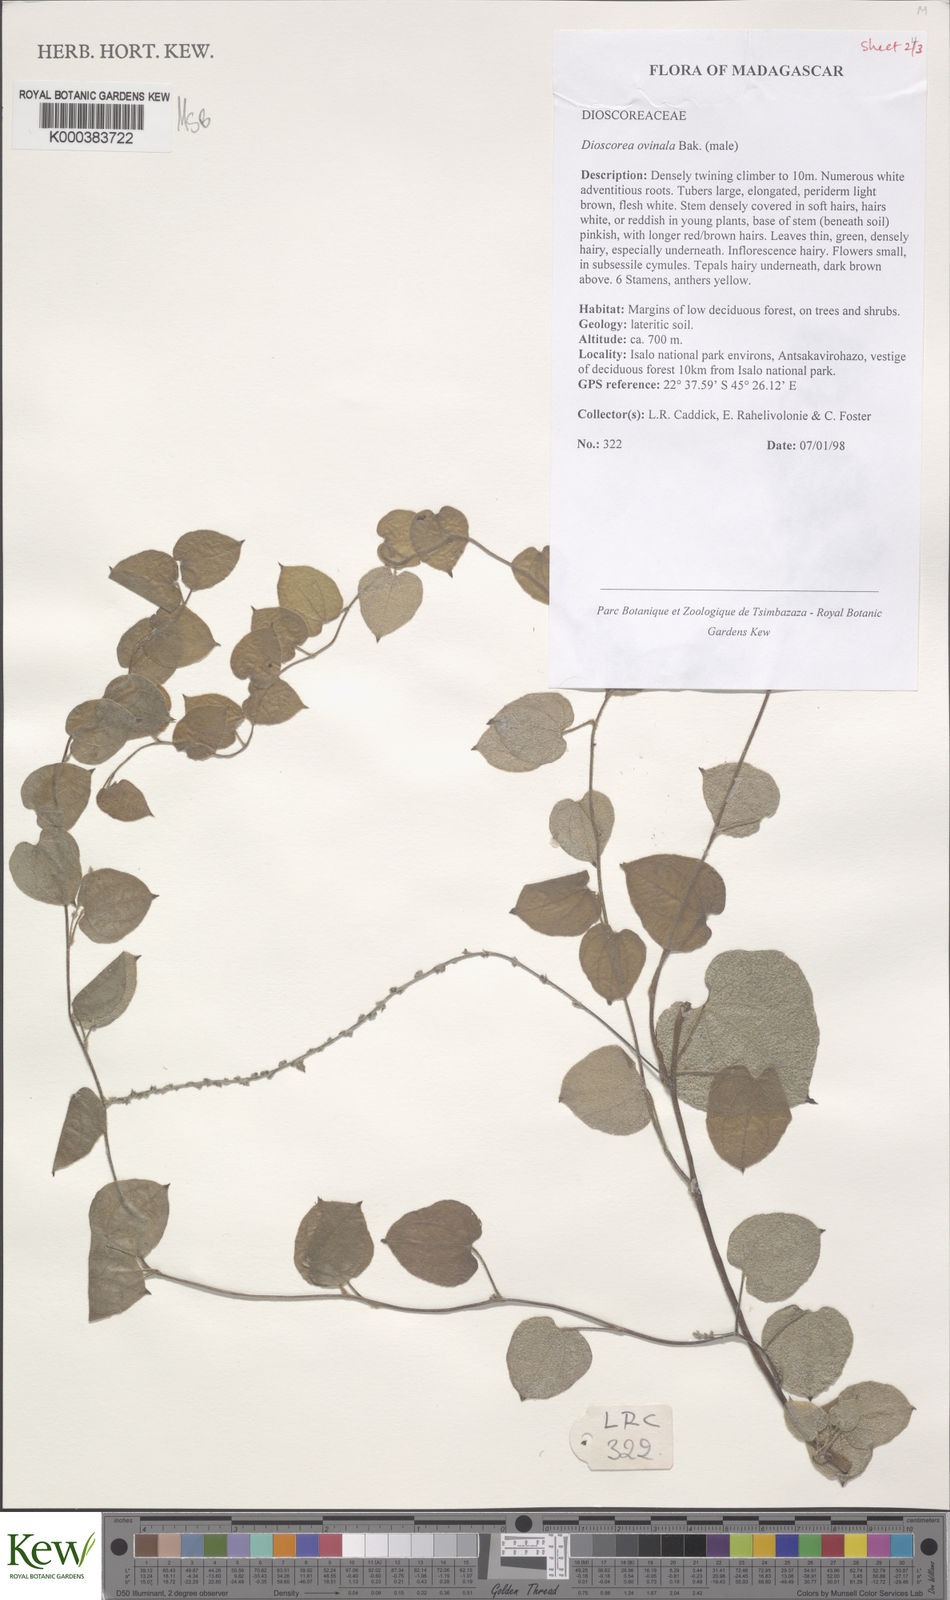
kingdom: Plantae
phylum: Tracheophyta
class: Liliopsida
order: Dioscoreales
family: Dioscoreaceae
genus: Dioscorea
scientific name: Dioscorea ovinala
